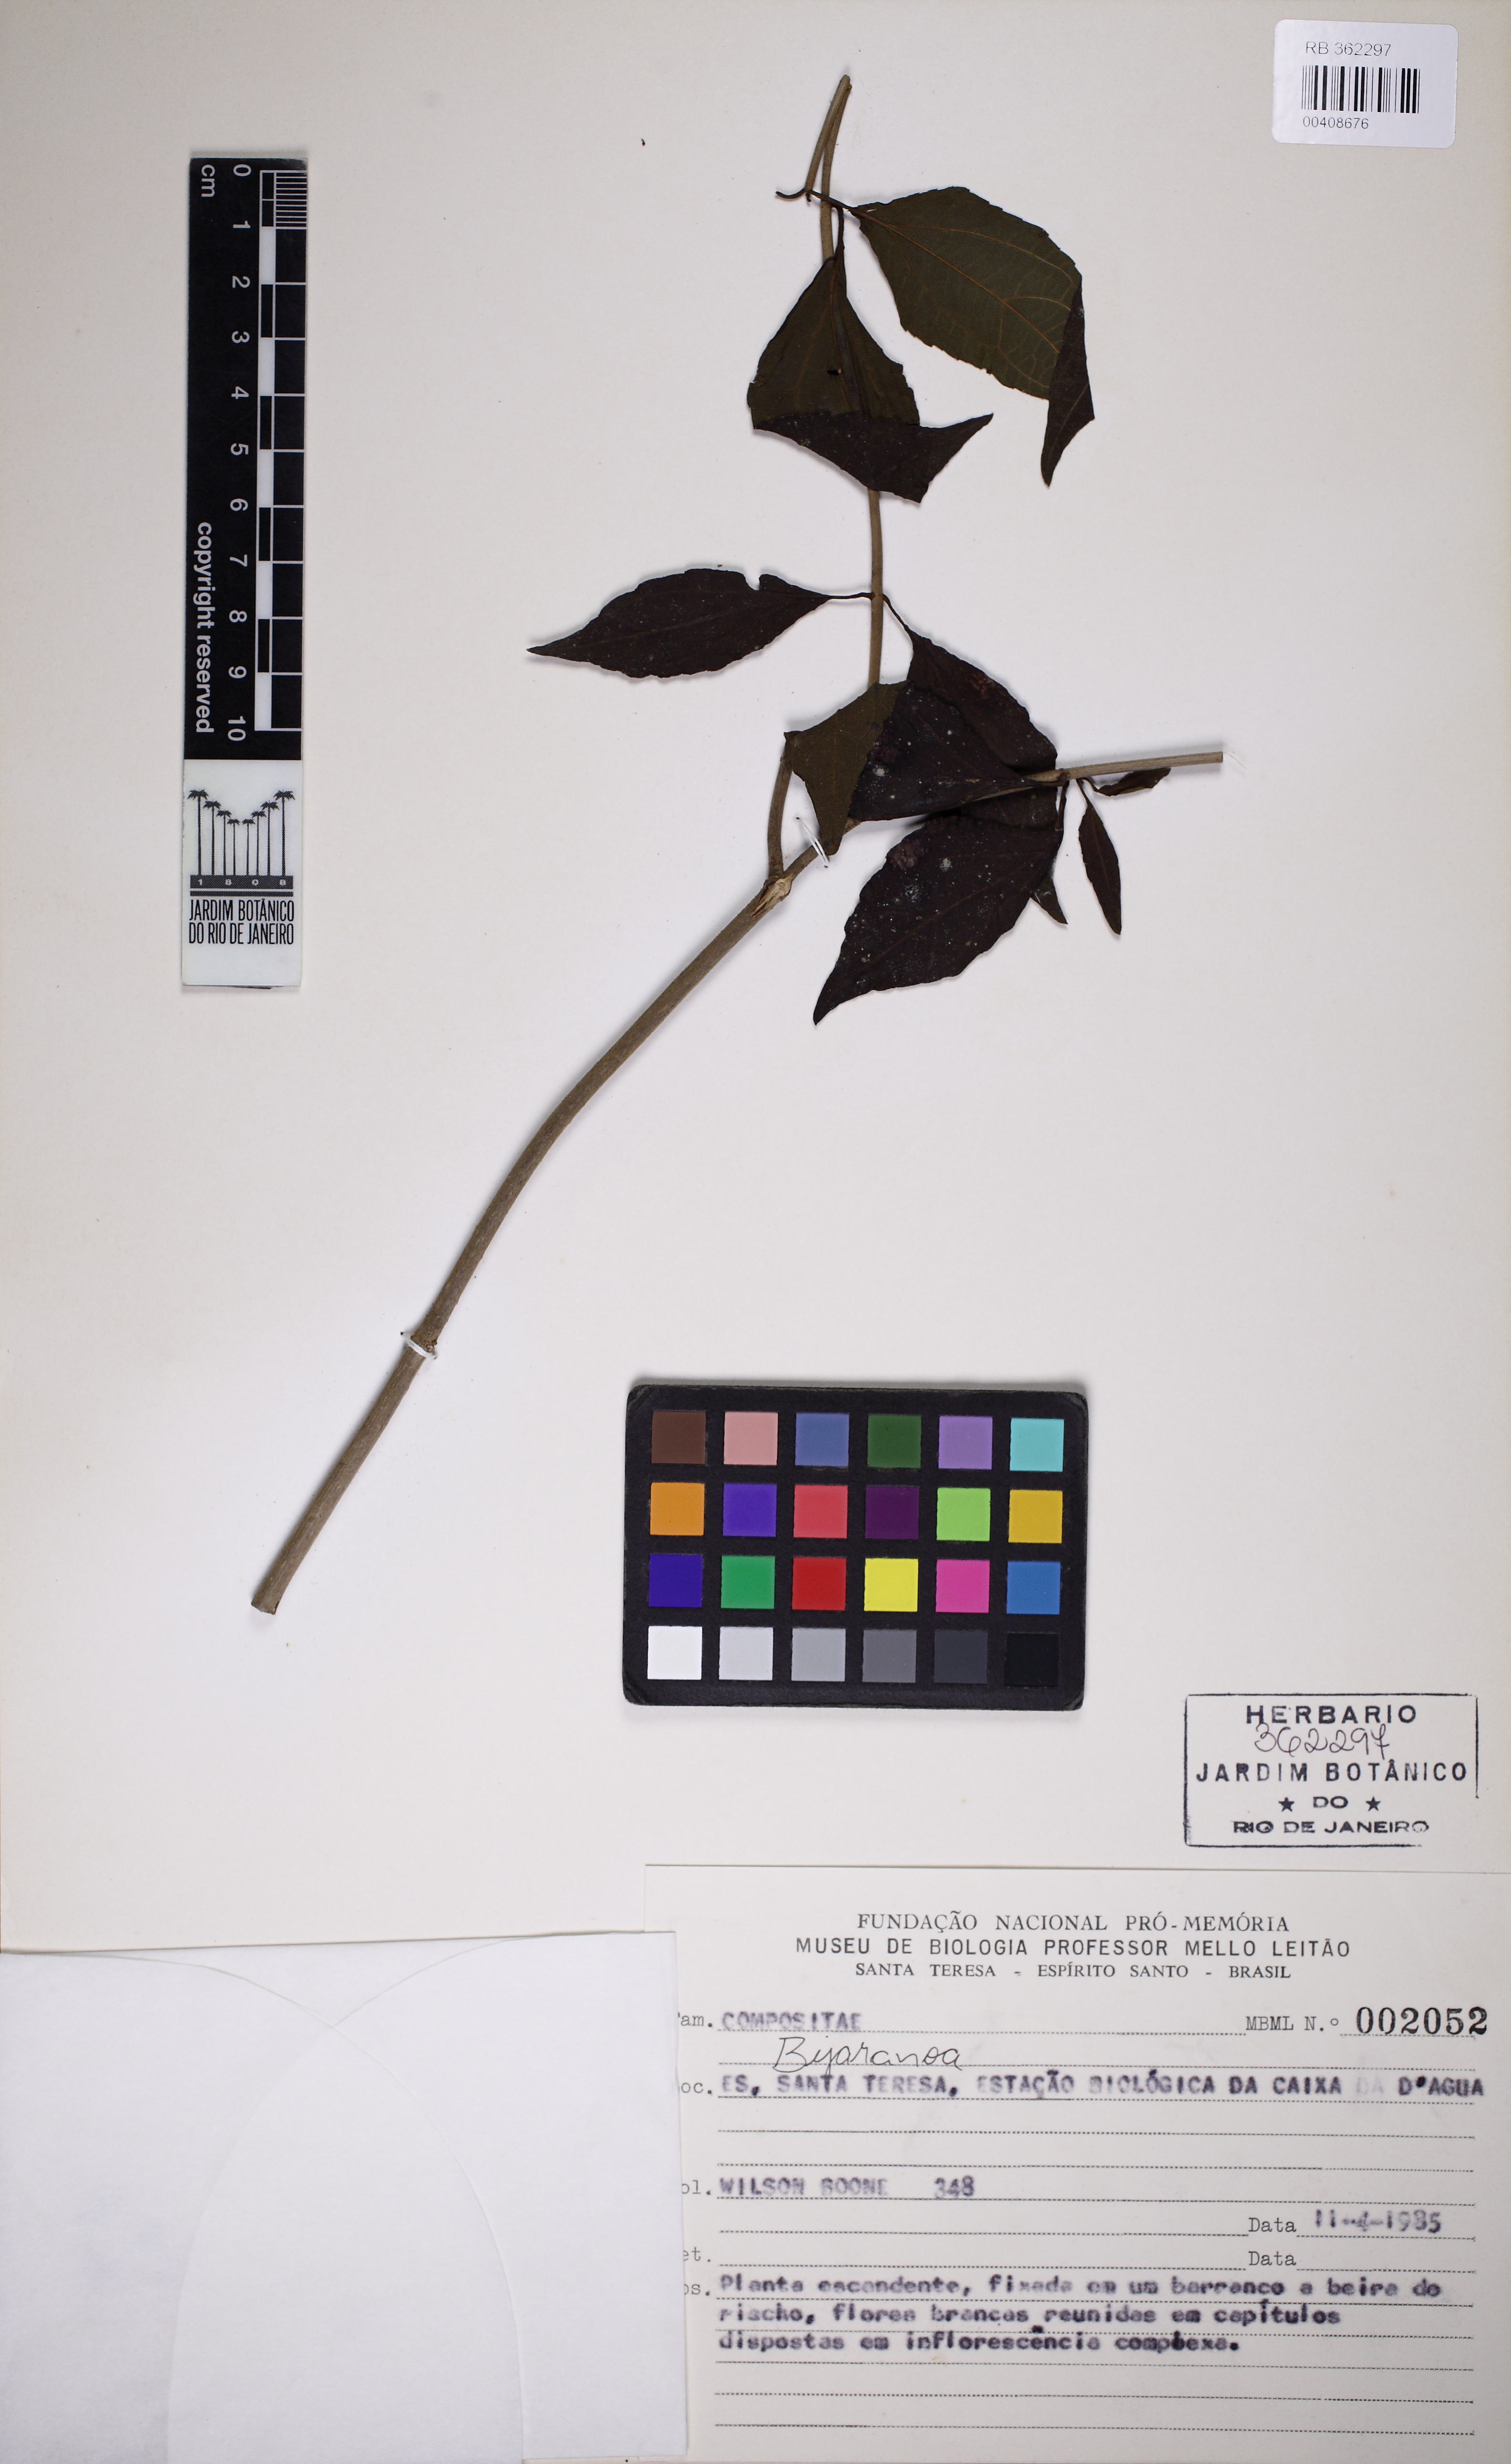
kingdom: Plantae
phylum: Tracheophyta
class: Magnoliopsida
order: Asterales
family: Asteraceae
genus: Bejaranoa
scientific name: Bejaranoa
